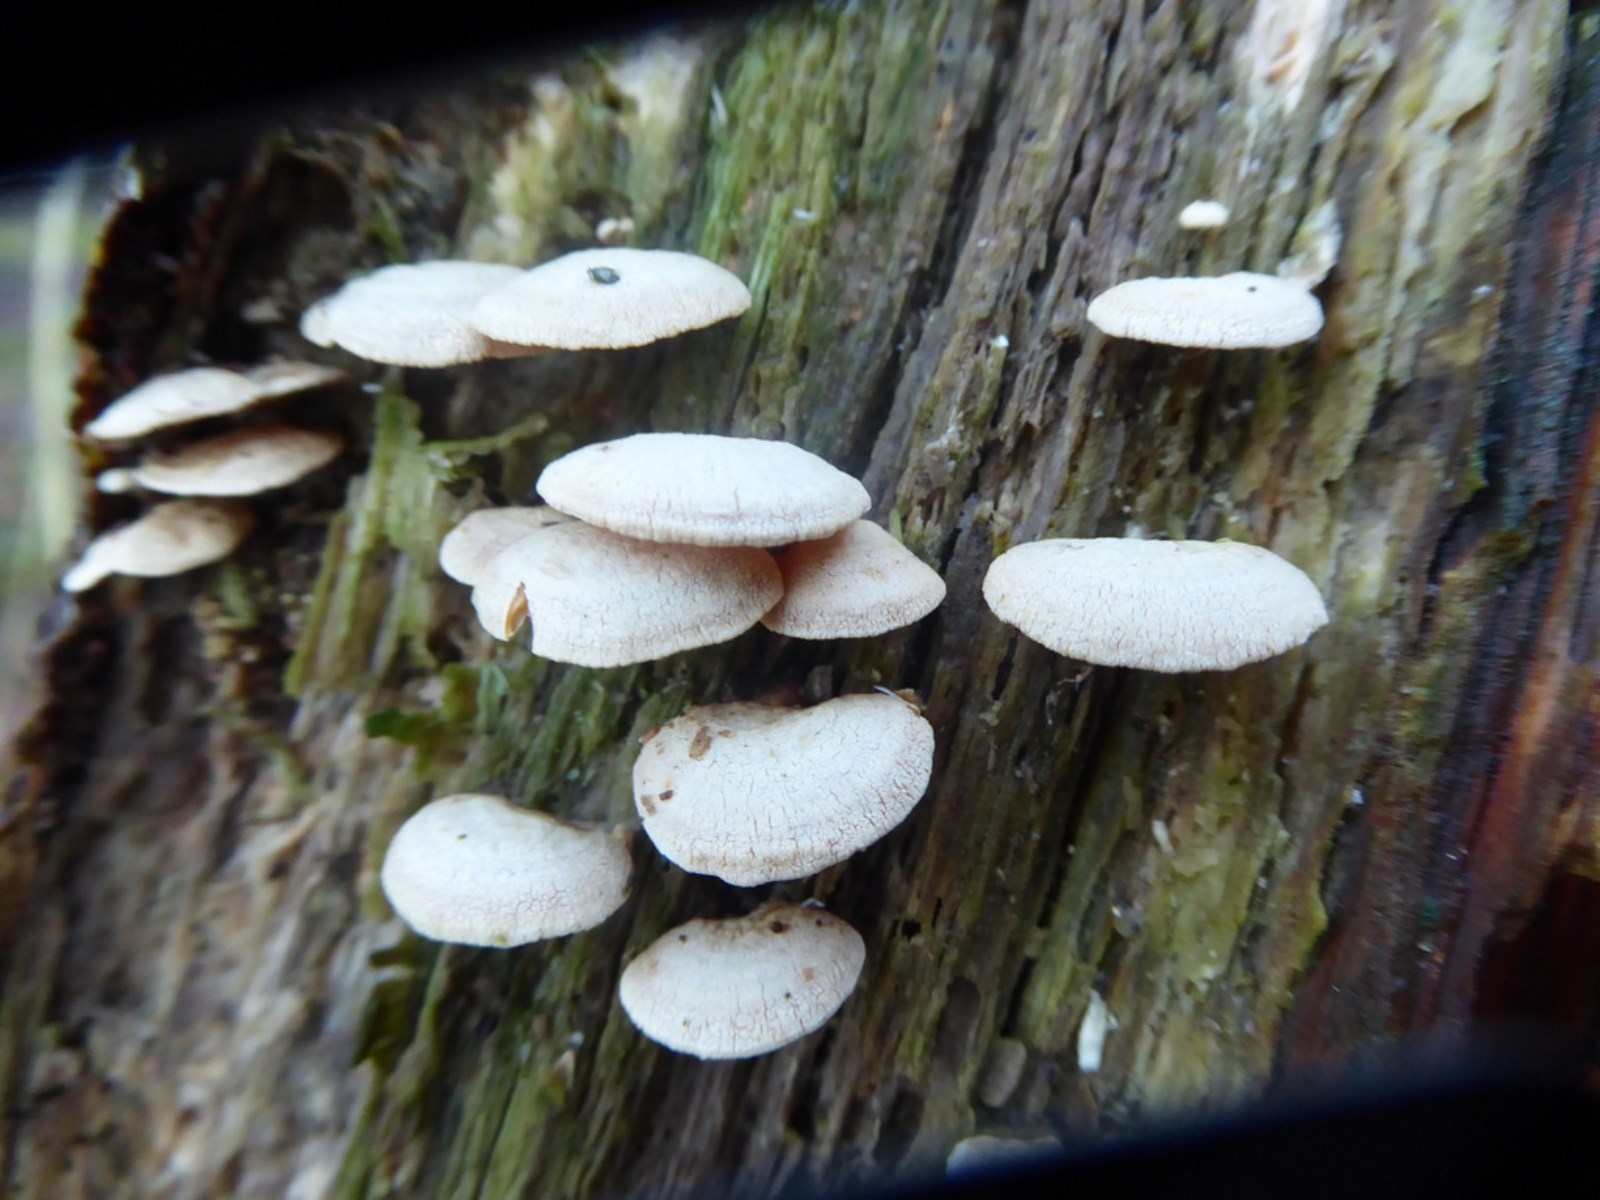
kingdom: Fungi
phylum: Basidiomycota
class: Agaricomycetes
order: Agaricales
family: Mycenaceae
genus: Panellus
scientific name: Panellus stipticus
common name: kliddet epaulethat
